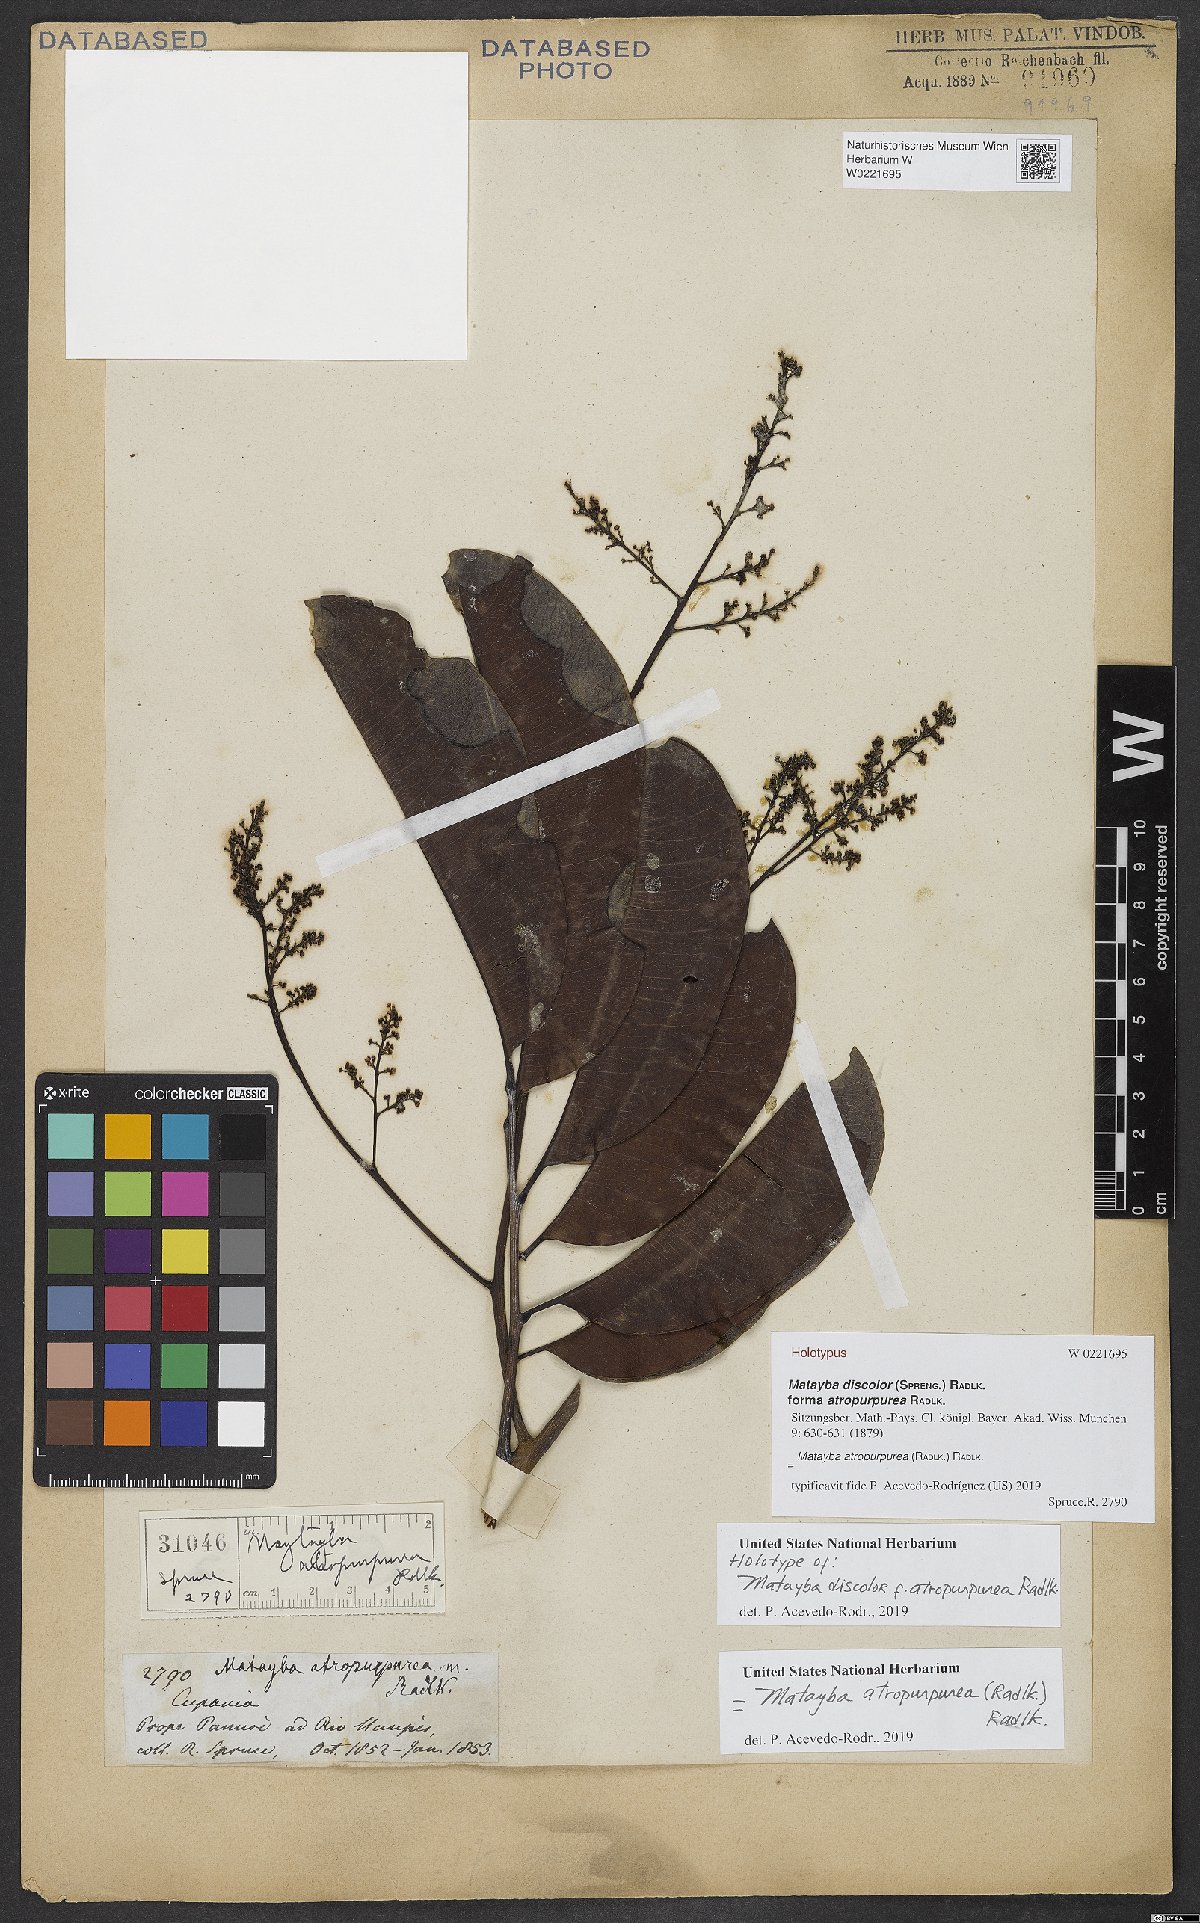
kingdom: Plantae
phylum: Tracheophyta
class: Magnoliopsida
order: Sapindales
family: Sapindaceae
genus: Matayba
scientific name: Matayba discolor
